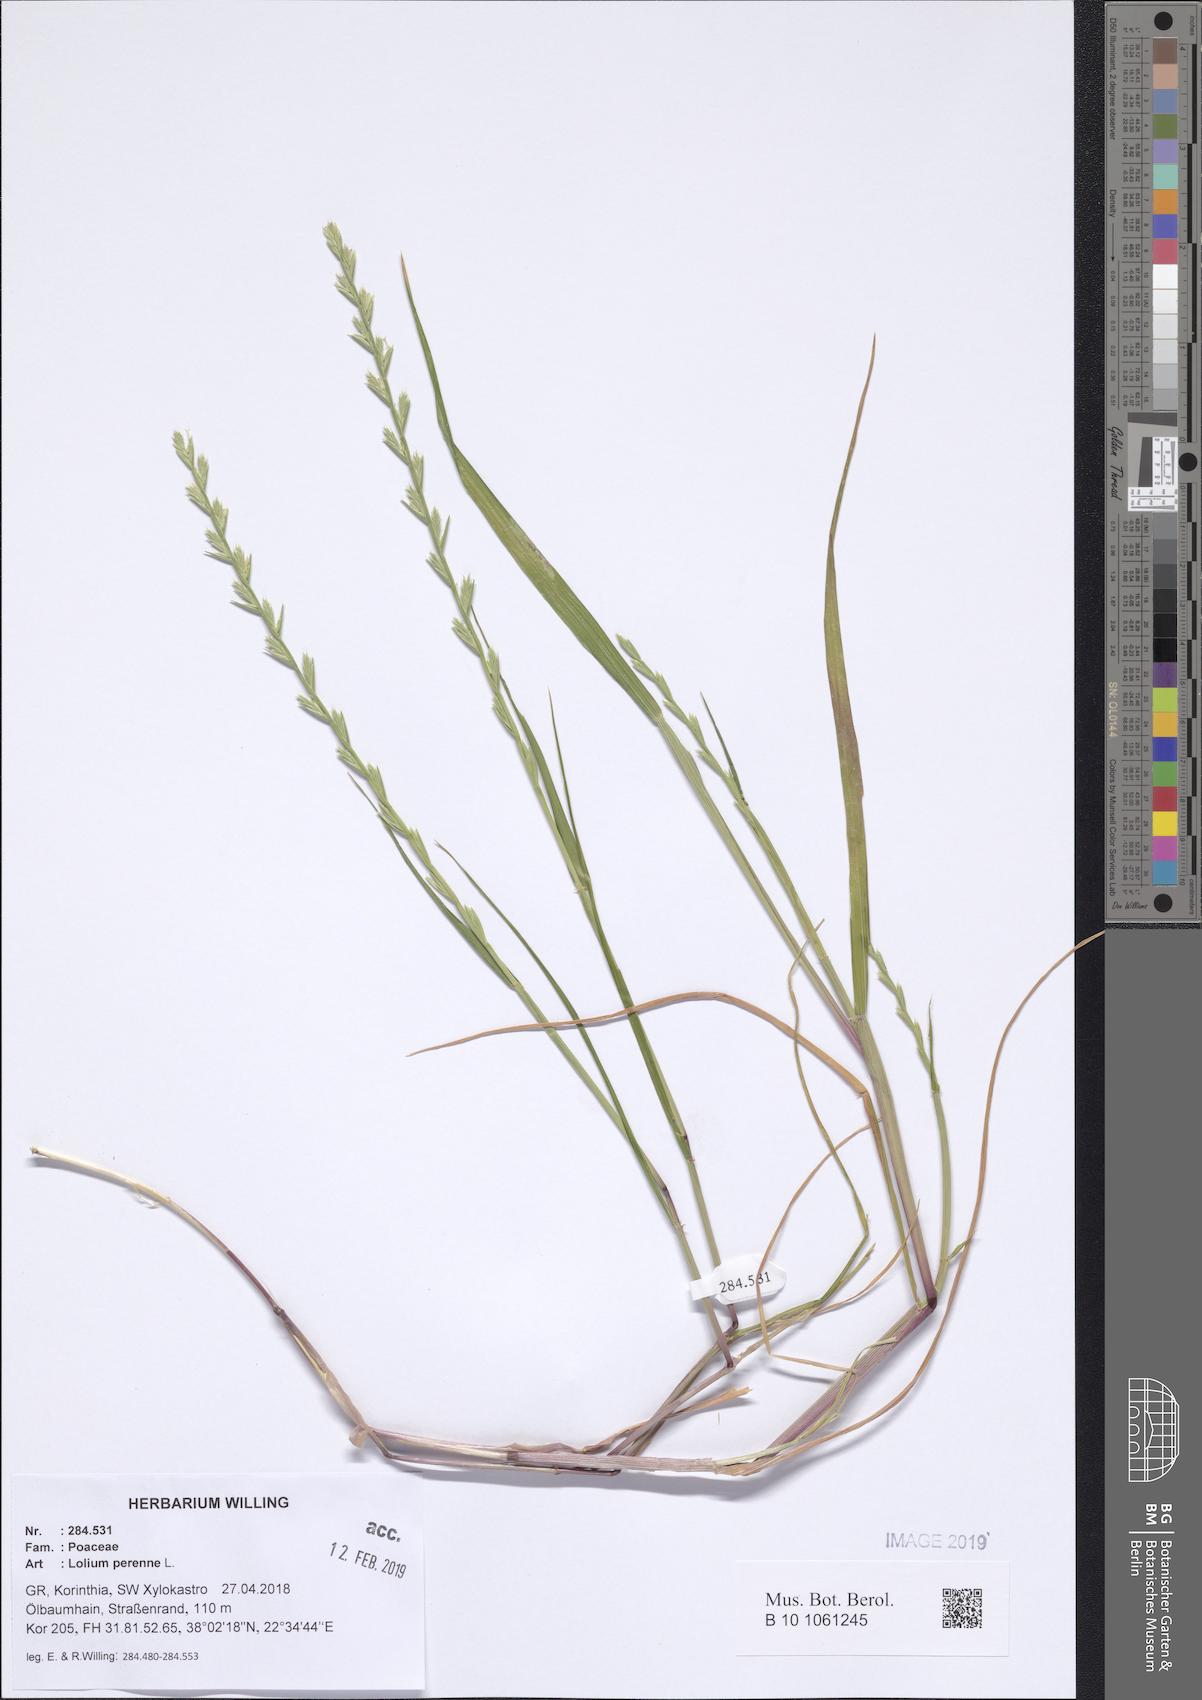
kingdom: Plantae
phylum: Tracheophyta
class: Liliopsida
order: Poales
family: Poaceae
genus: Lolium
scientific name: Lolium perenne
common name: Perennial ryegrass
